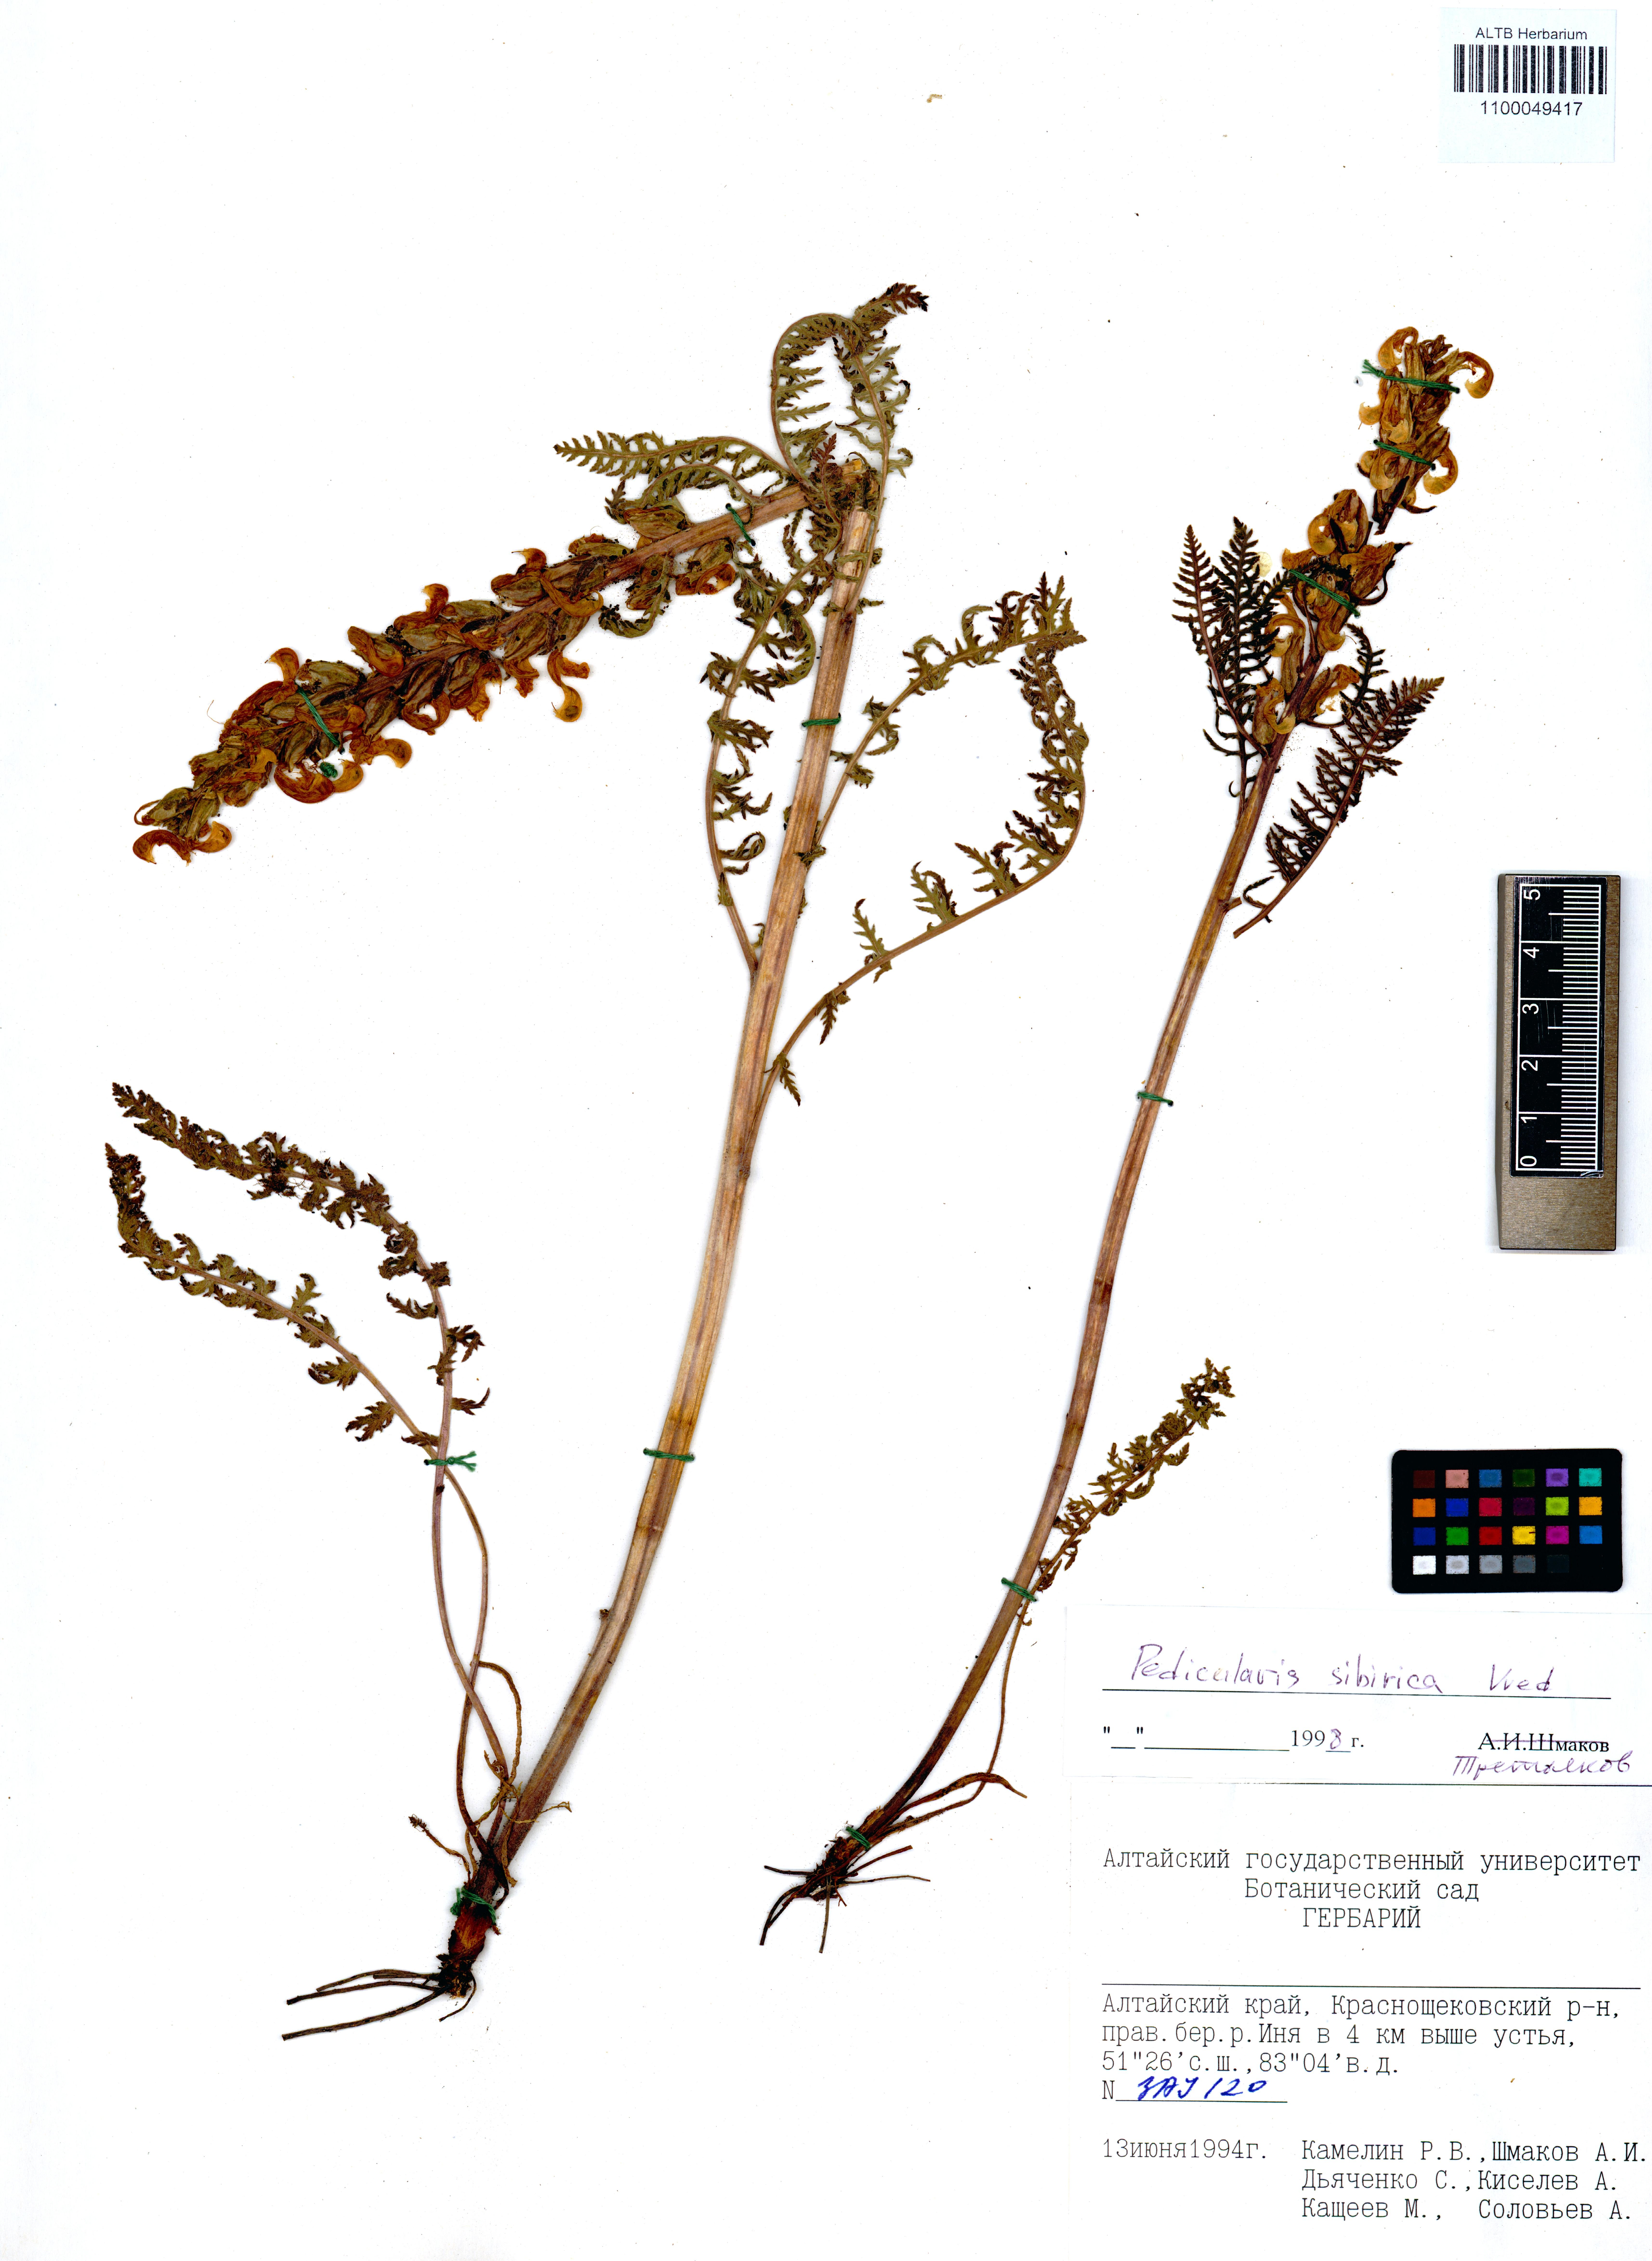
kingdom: Plantae
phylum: Tracheophyta
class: Magnoliopsida
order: Lamiales
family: Orobanchaceae
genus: Pedicularis
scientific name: Pedicularis sibirica
